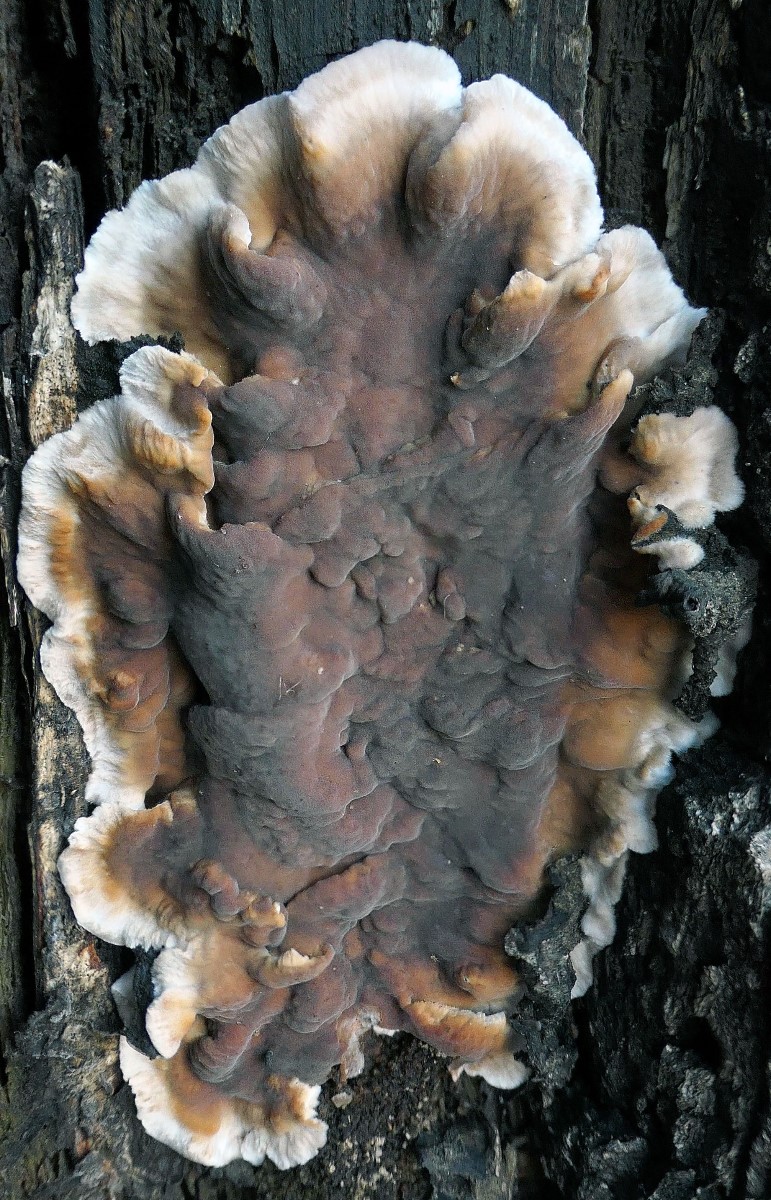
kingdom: Fungi
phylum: Basidiomycota
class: Agaricomycetes
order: Russulales
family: Stereaceae
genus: Stereum
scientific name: Stereum gausapatum
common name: tynd lædersvamp
